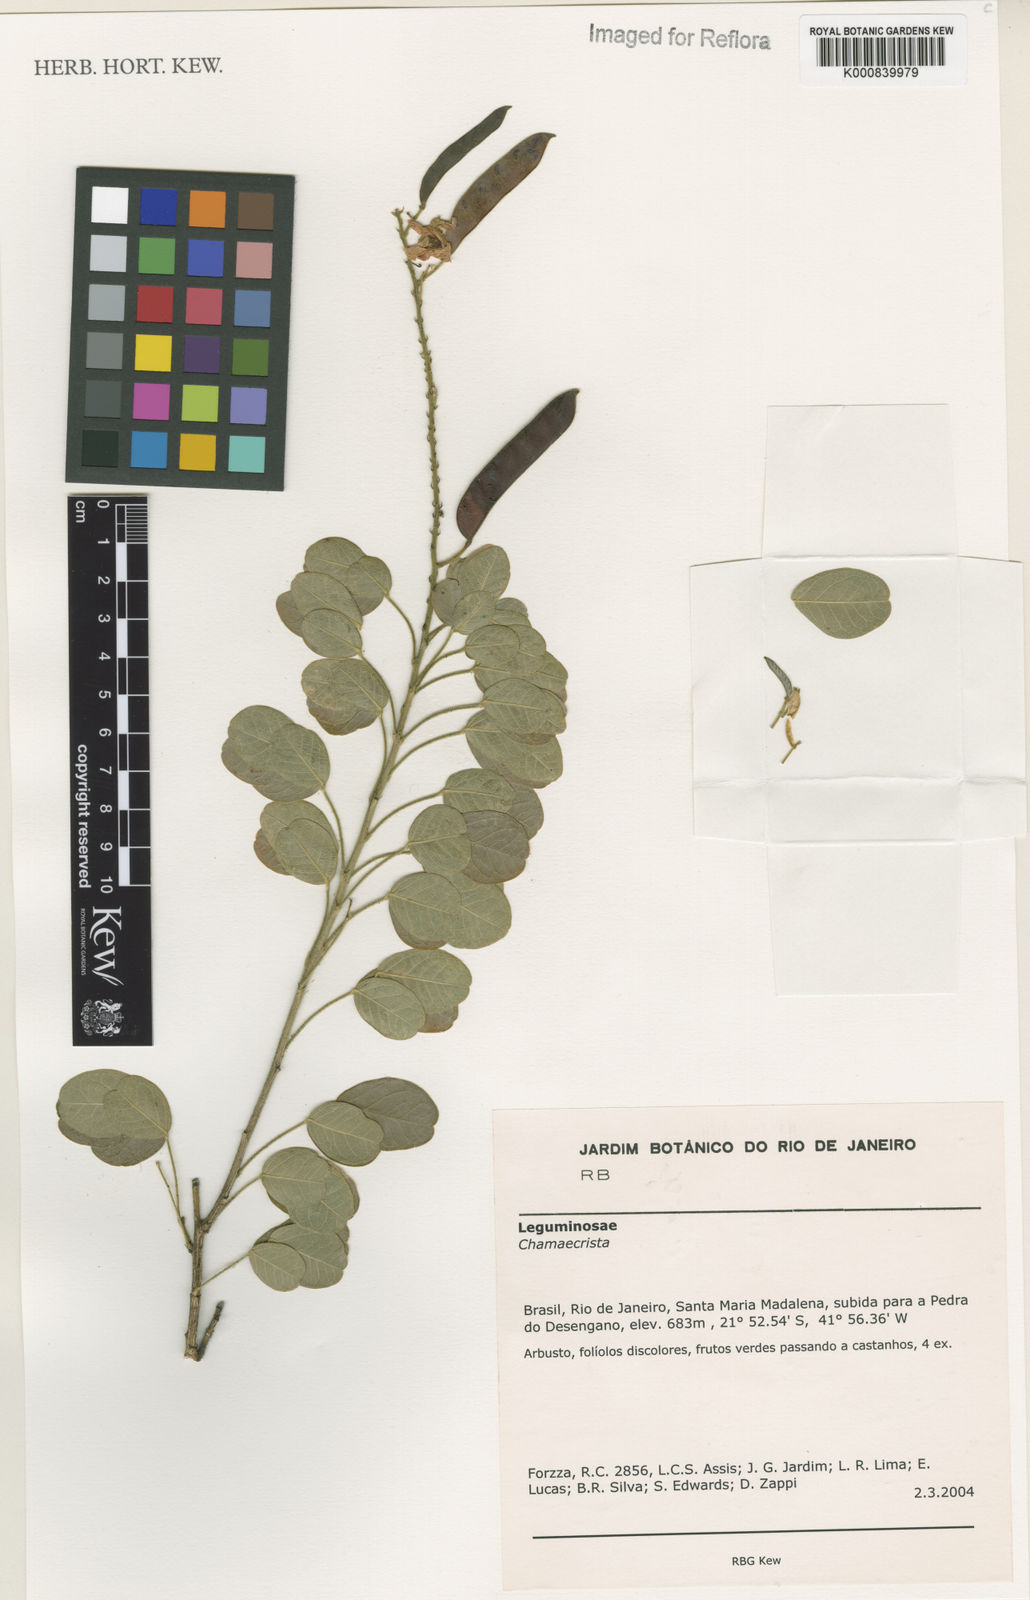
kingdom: Plantae
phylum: Tracheophyta
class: Magnoliopsida
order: Fabales
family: Fabaceae
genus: Chamaecrista
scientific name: Chamaecrista
